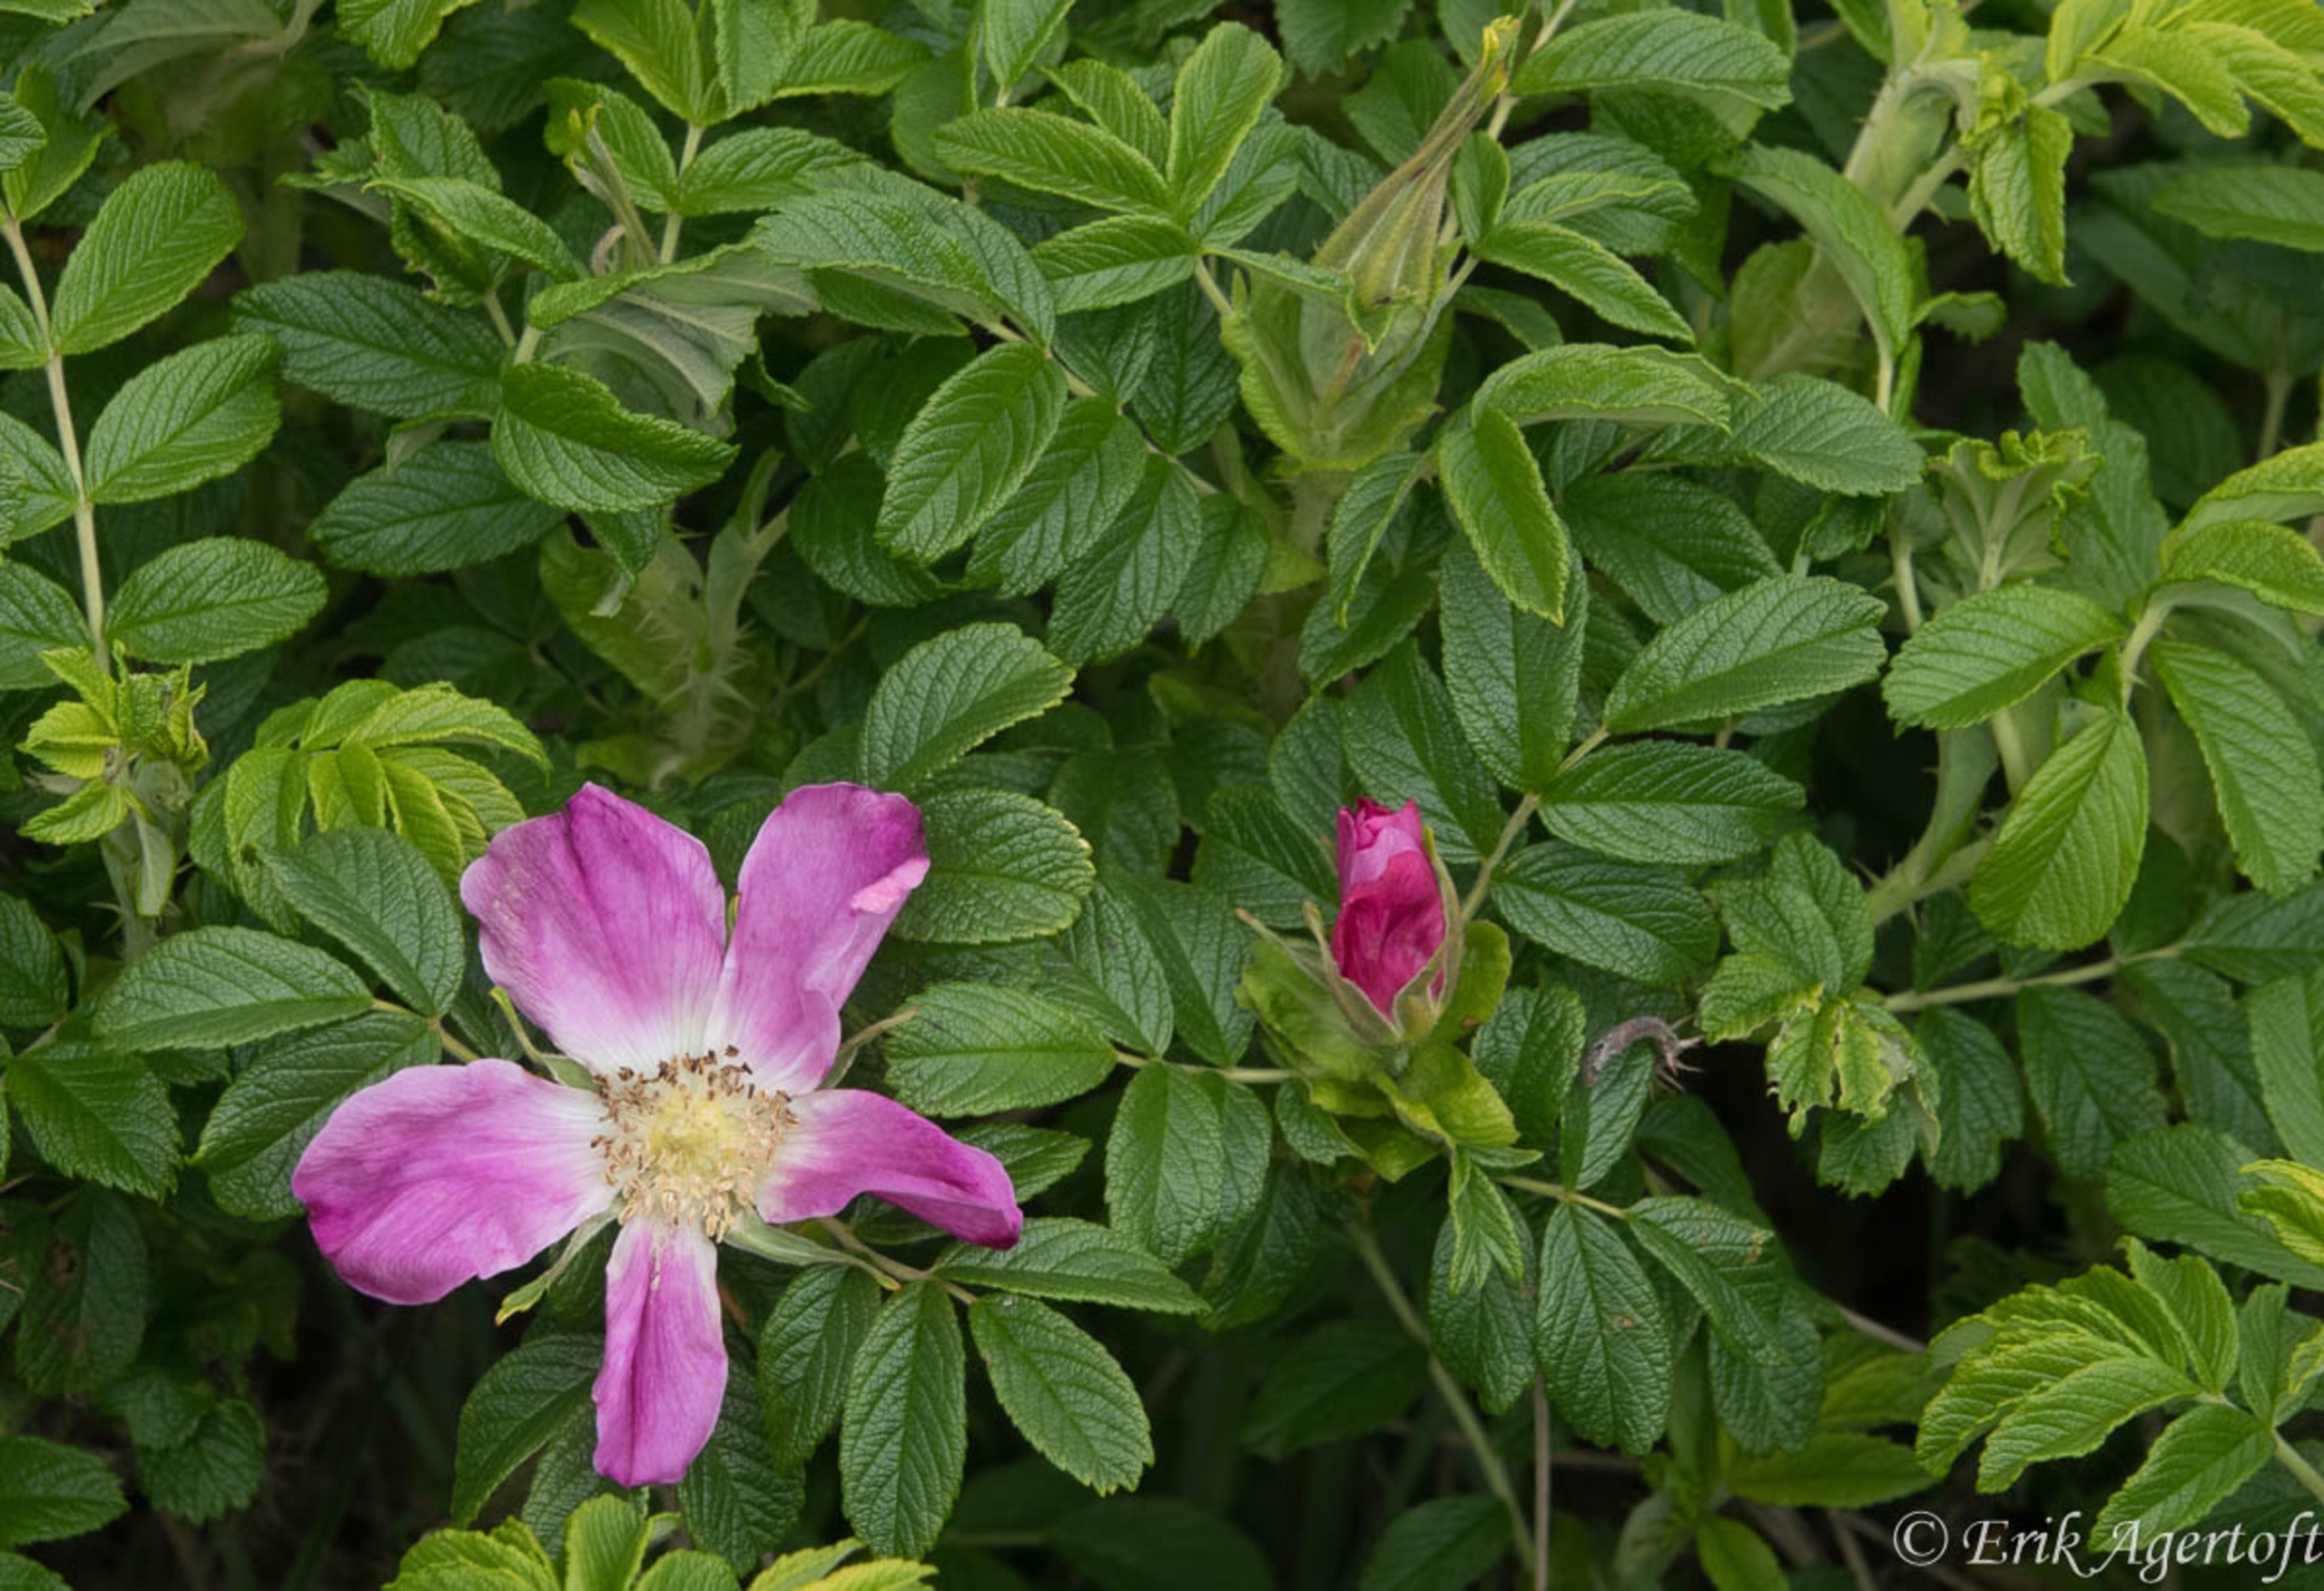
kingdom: Plantae
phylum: Tracheophyta
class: Magnoliopsida
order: Rosales
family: Rosaceae
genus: Rosa
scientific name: Rosa rugosa
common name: Rynket rose
